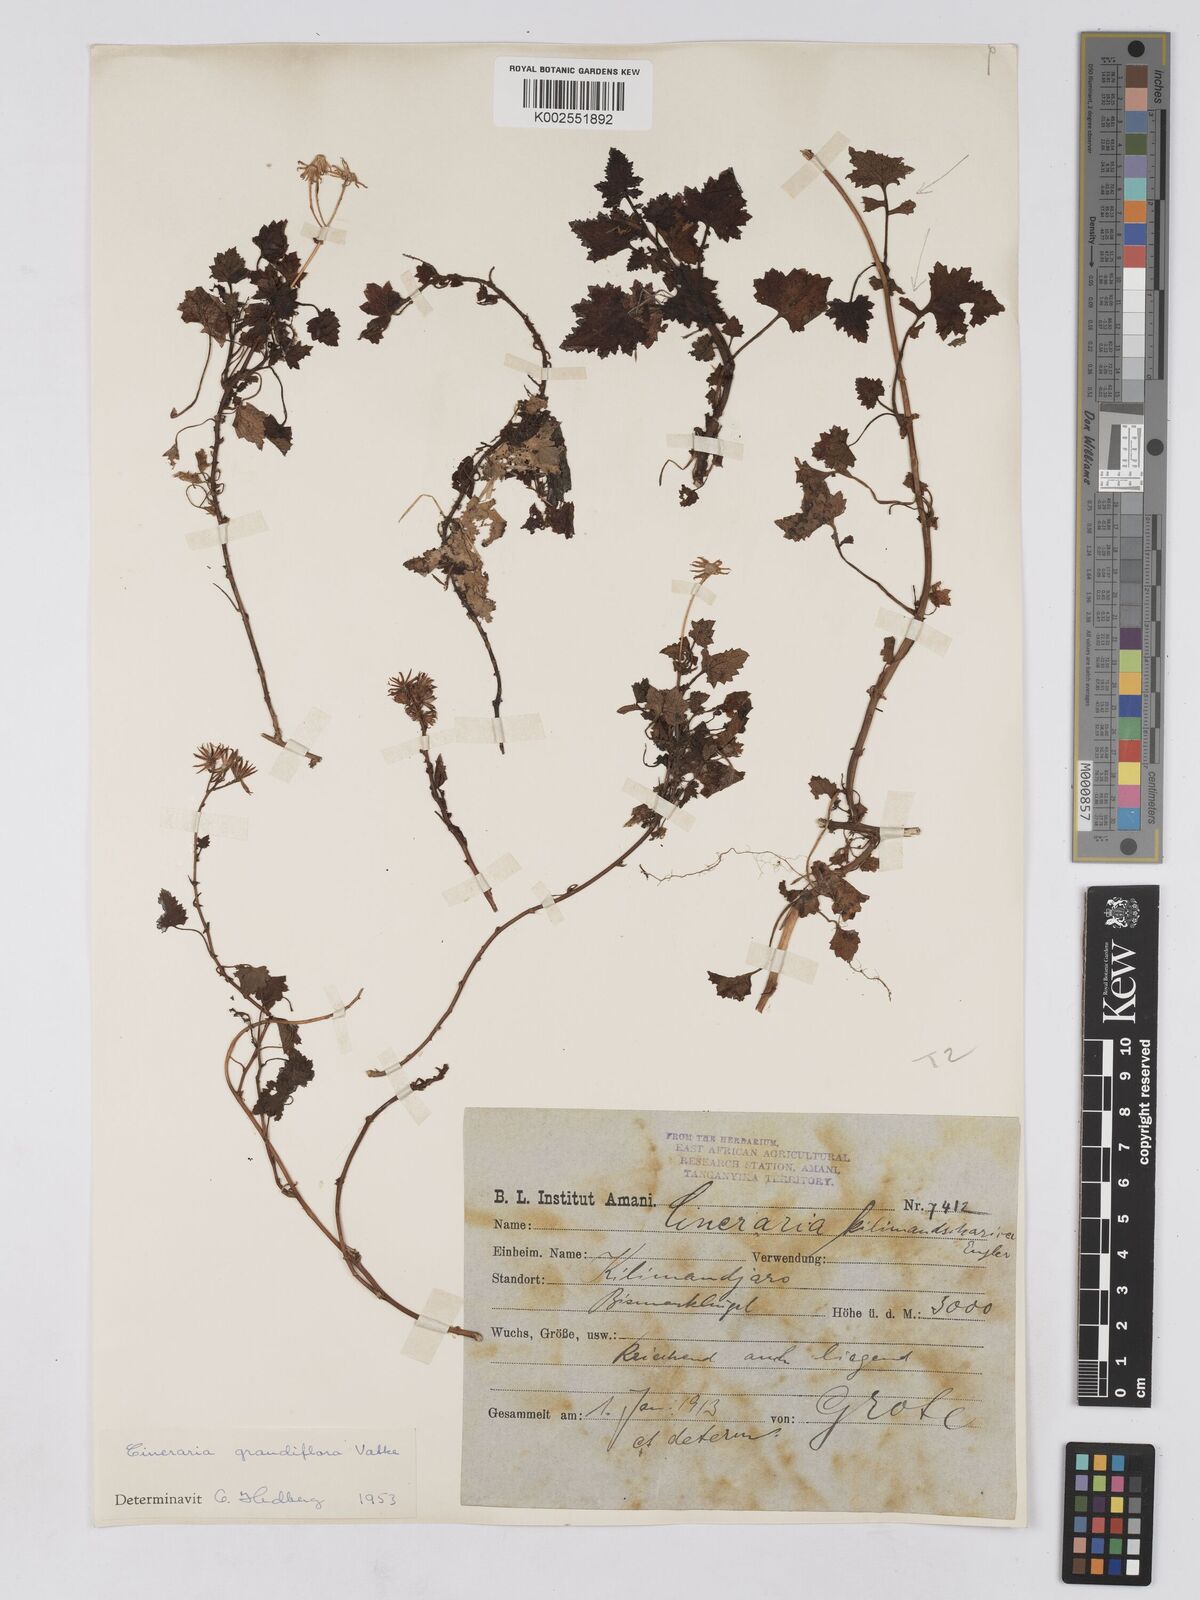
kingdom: Plantae
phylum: Tracheophyta
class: Magnoliopsida
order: Asterales
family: Asteraceae
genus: Cineraria
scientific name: Cineraria deltoidea
